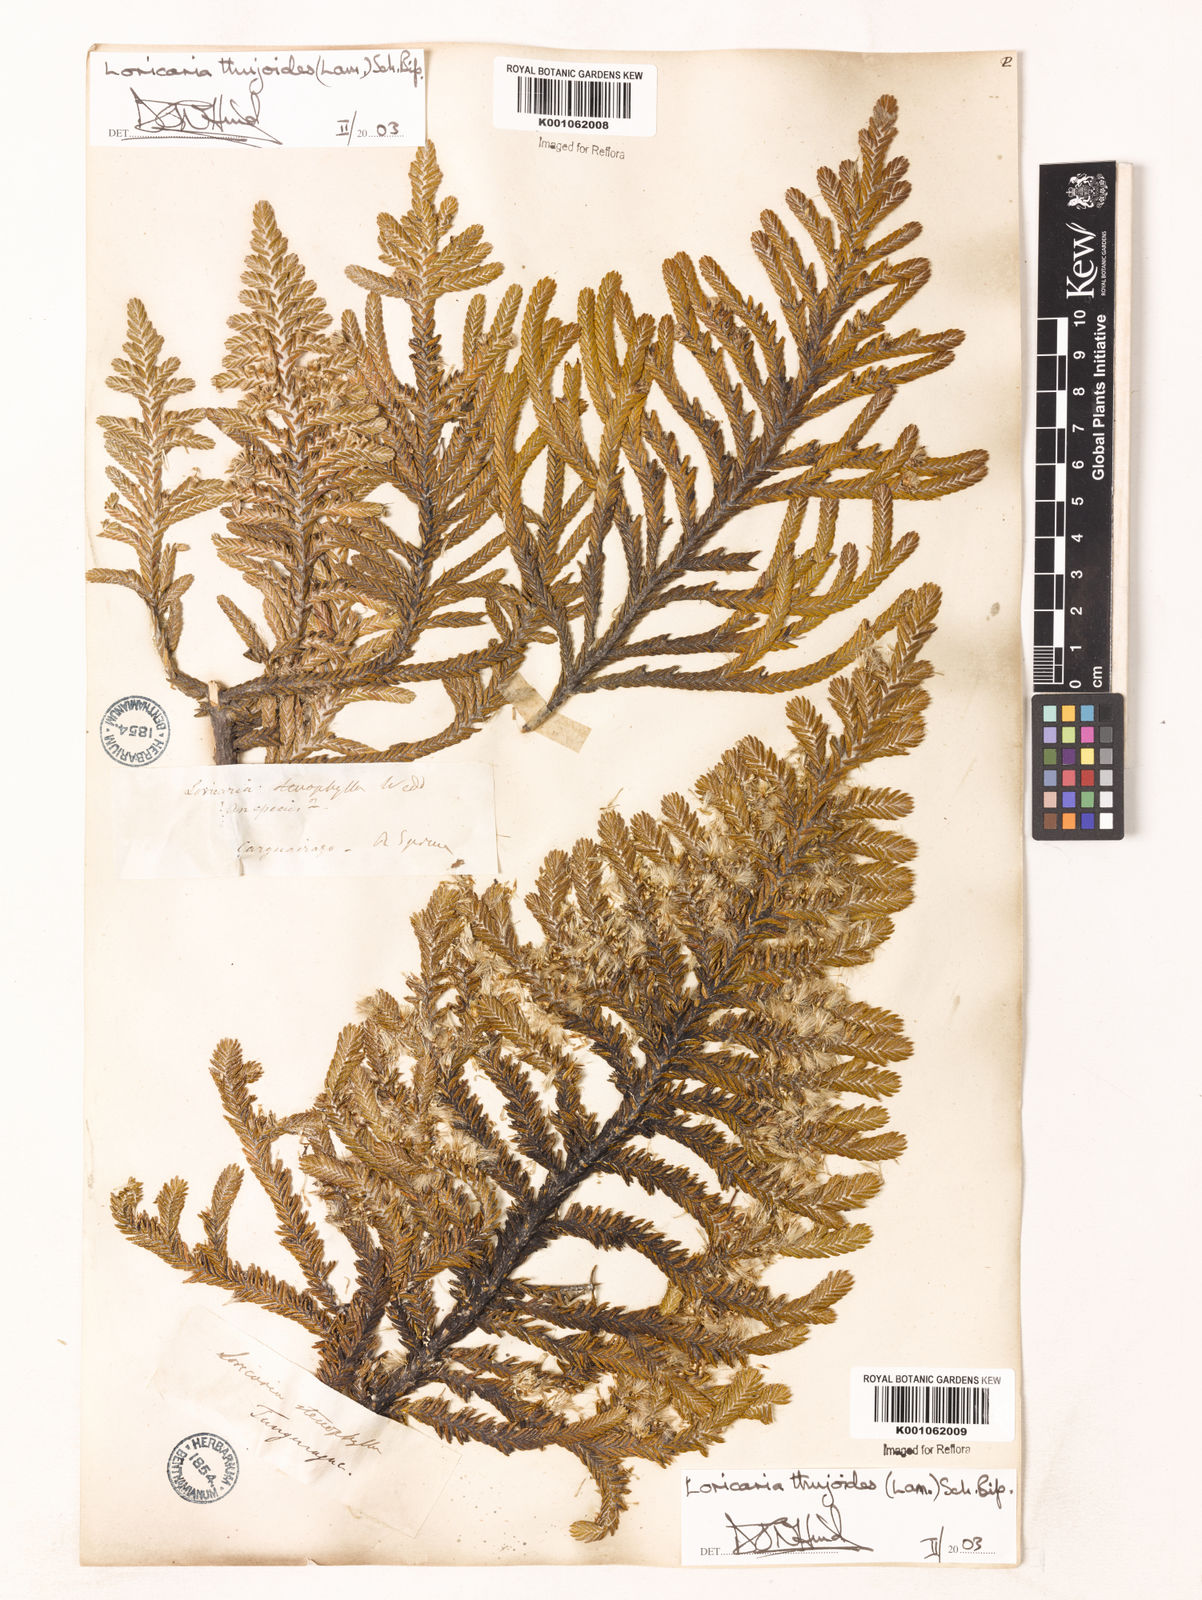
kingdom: Plantae
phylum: Tracheophyta
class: Magnoliopsida
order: Asterales
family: Asteraceae
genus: Andicolea
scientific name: Andicolea
